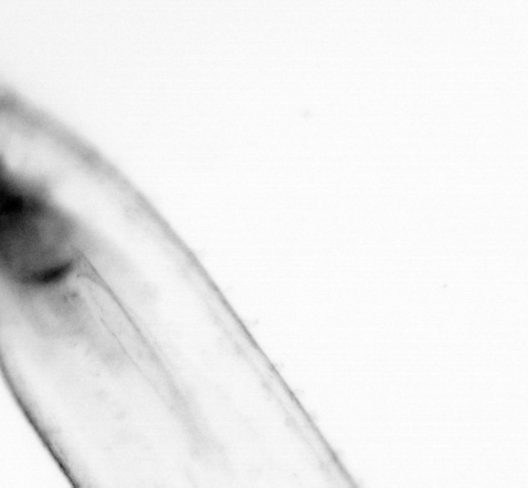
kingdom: Animalia
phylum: Chaetognatha
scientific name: Chaetognatha
